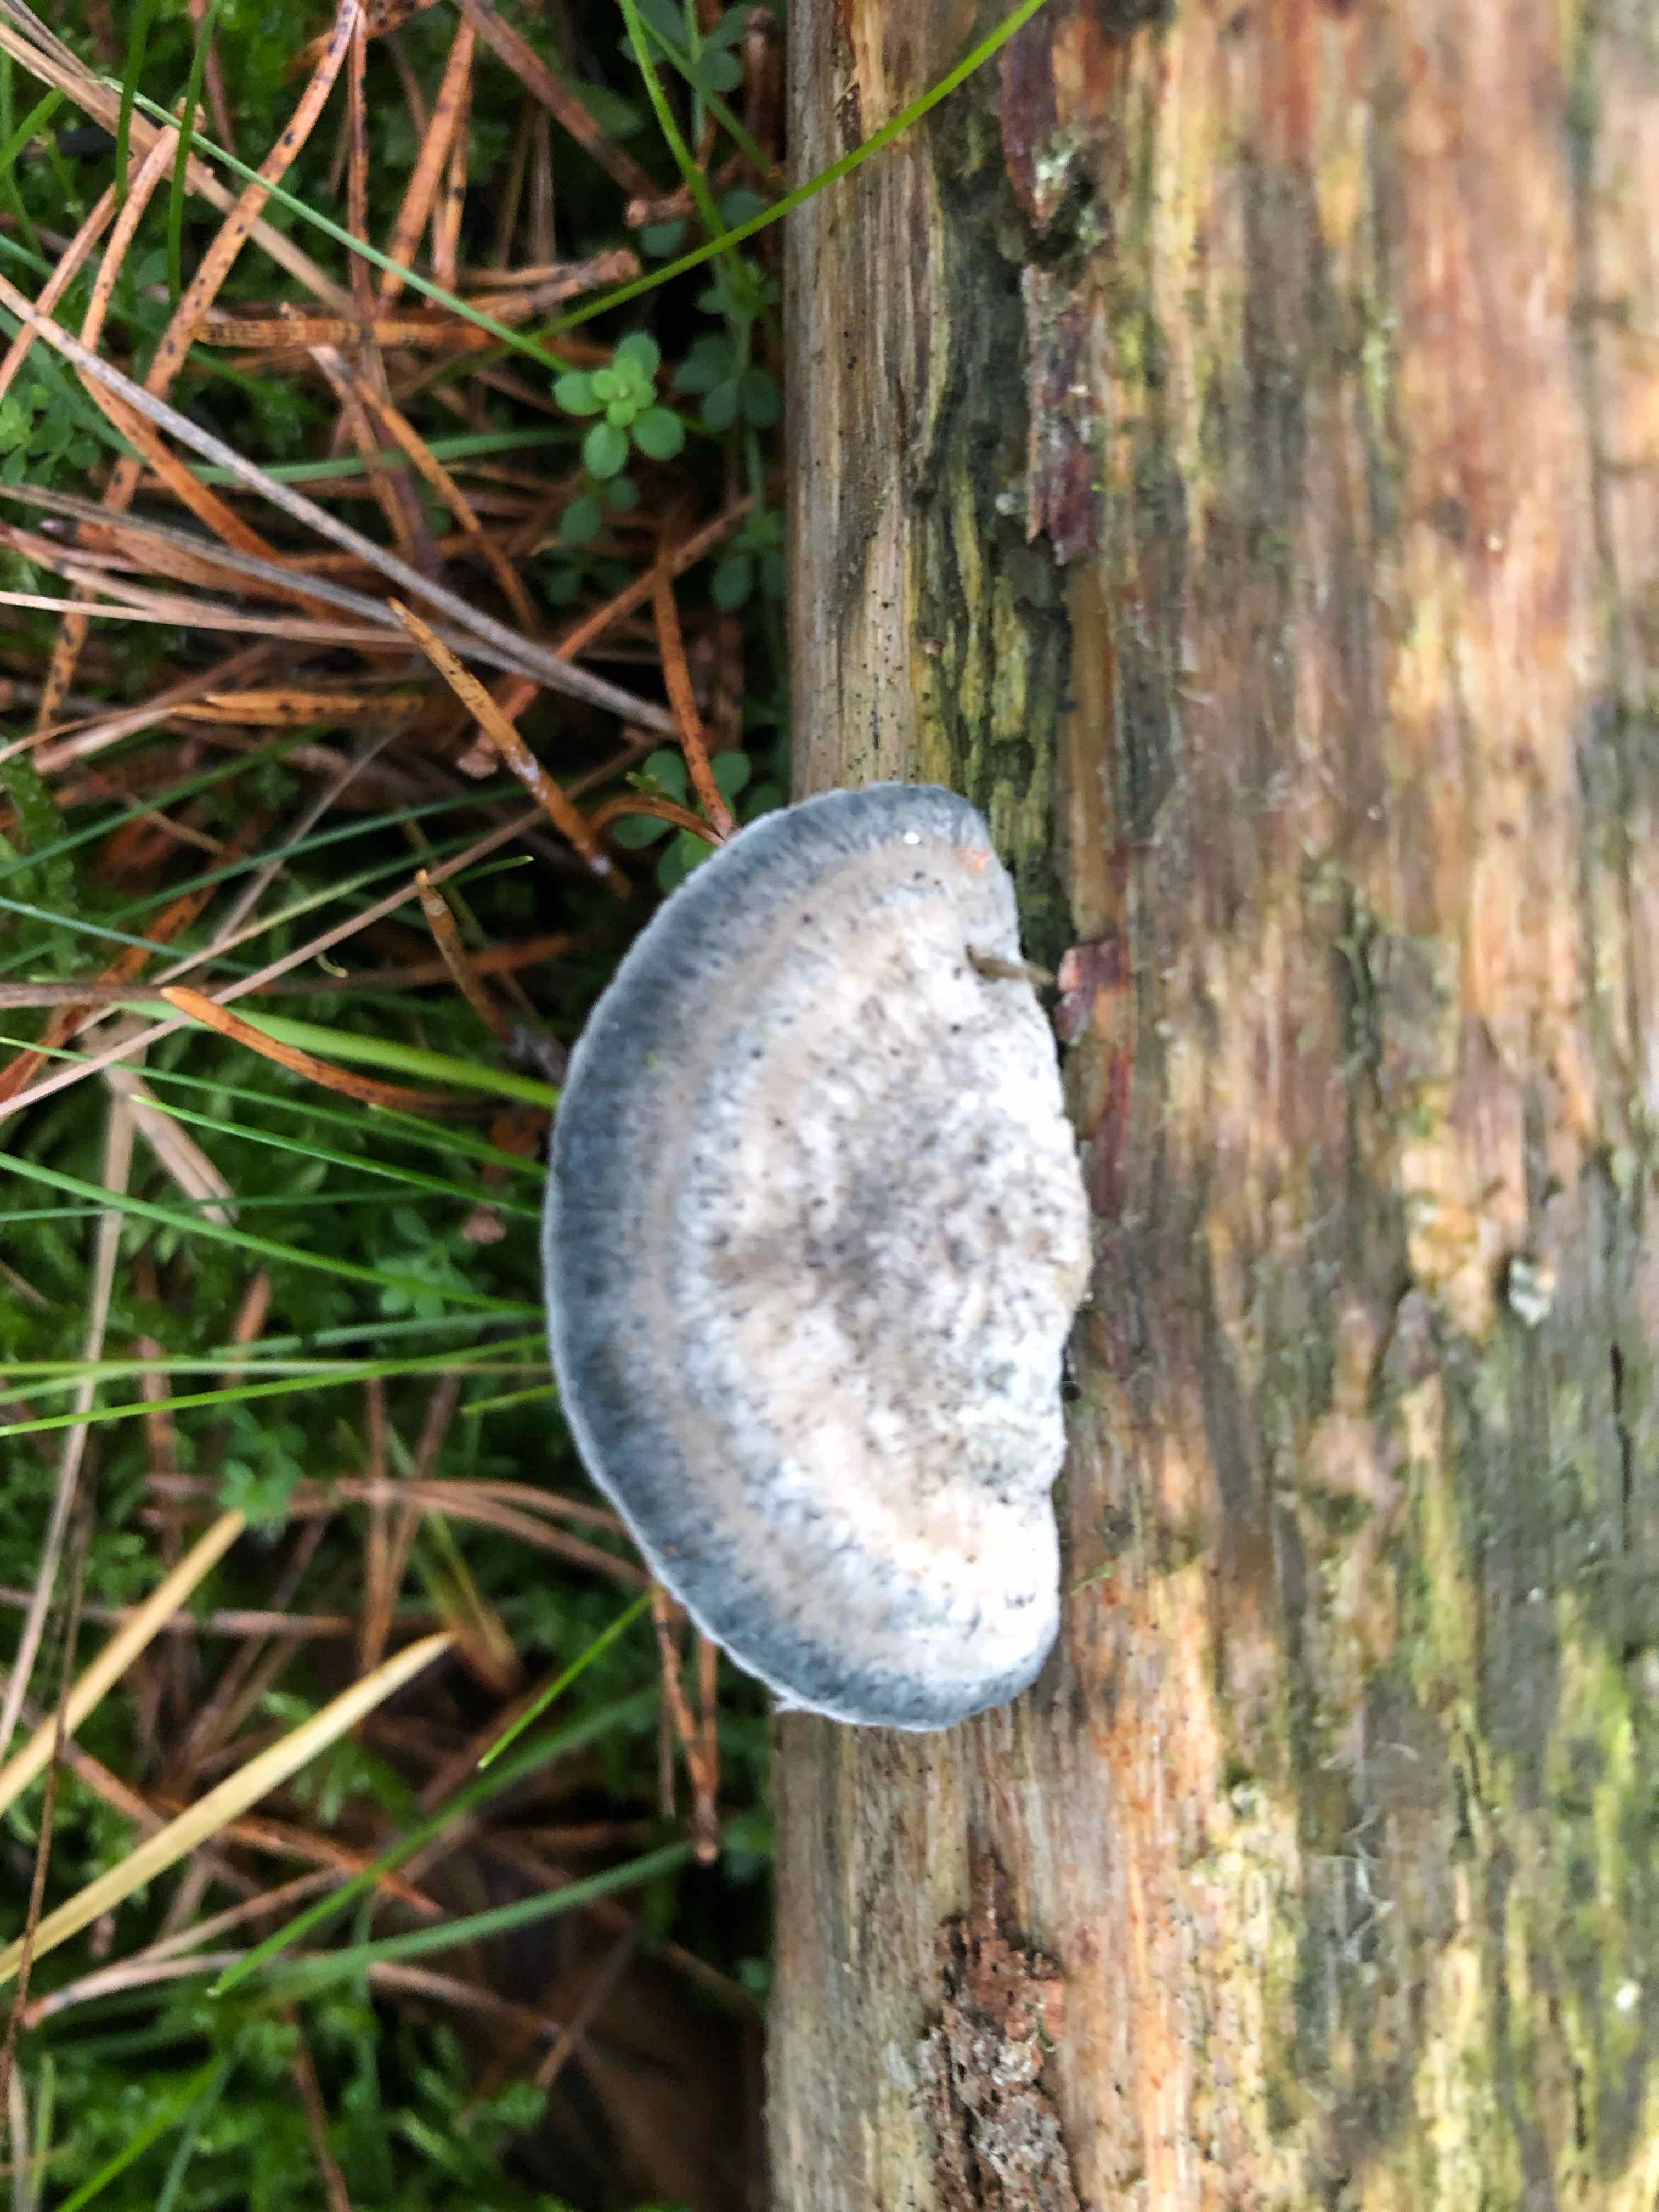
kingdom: Fungi
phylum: Basidiomycota
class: Agaricomycetes
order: Polyporales
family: Polyporaceae
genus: Cyanosporus
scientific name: Cyanosporus caesius
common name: blålig kødporesvamp
